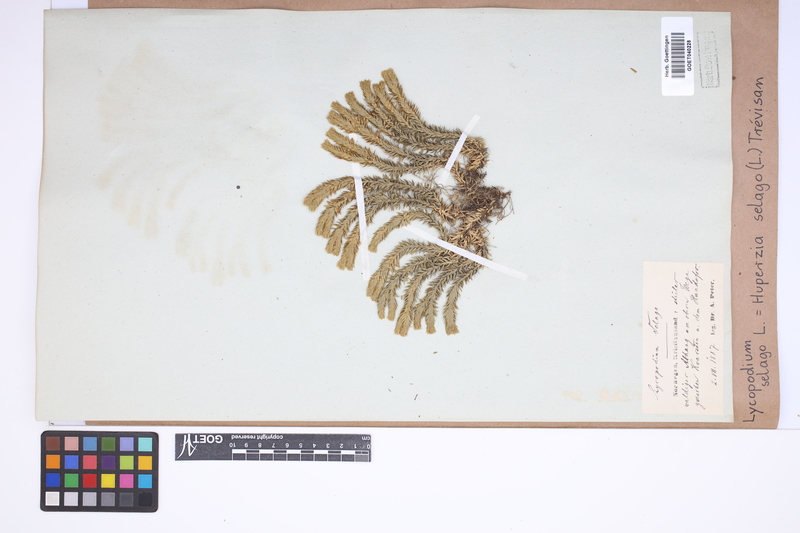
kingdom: Plantae
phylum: Tracheophyta
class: Lycopodiopsida
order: Lycopodiales
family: Lycopodiaceae
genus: Huperzia
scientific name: Huperzia selago
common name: Northern firmoss
